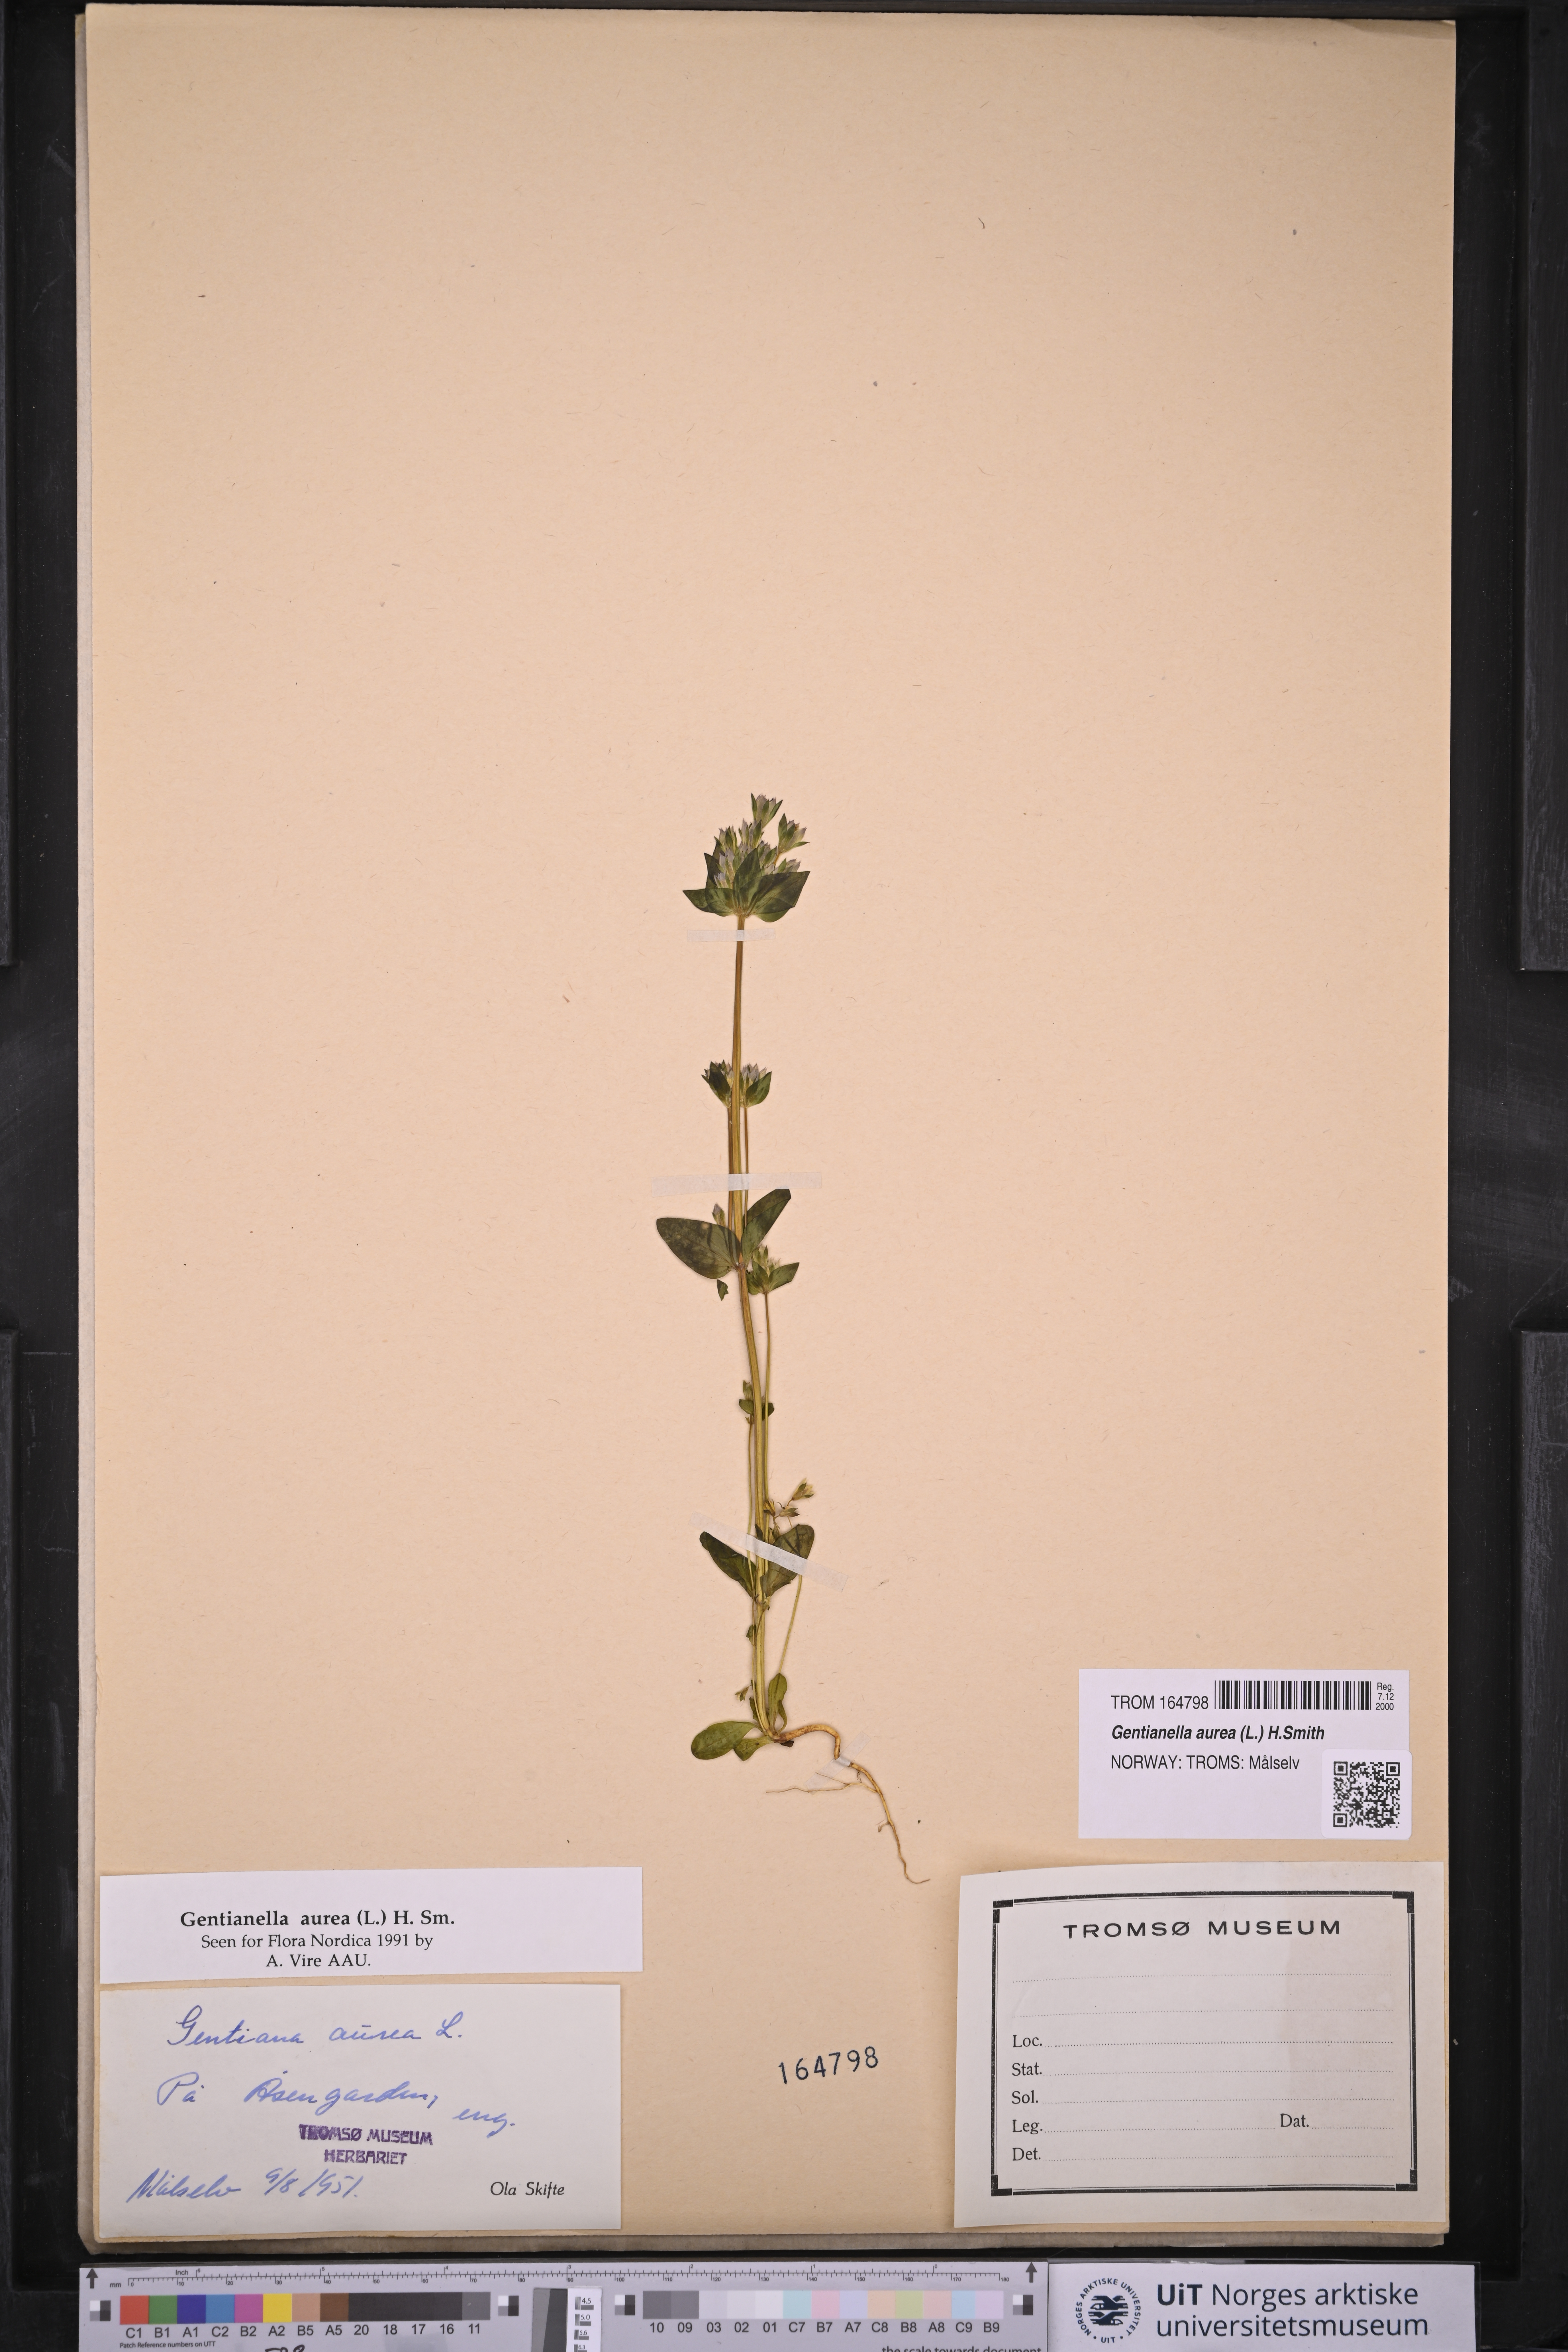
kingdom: Plantae
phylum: Tracheophyta
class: Magnoliopsida
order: Gentianales
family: Gentianaceae
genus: Gentianella
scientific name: Gentianella aurea
